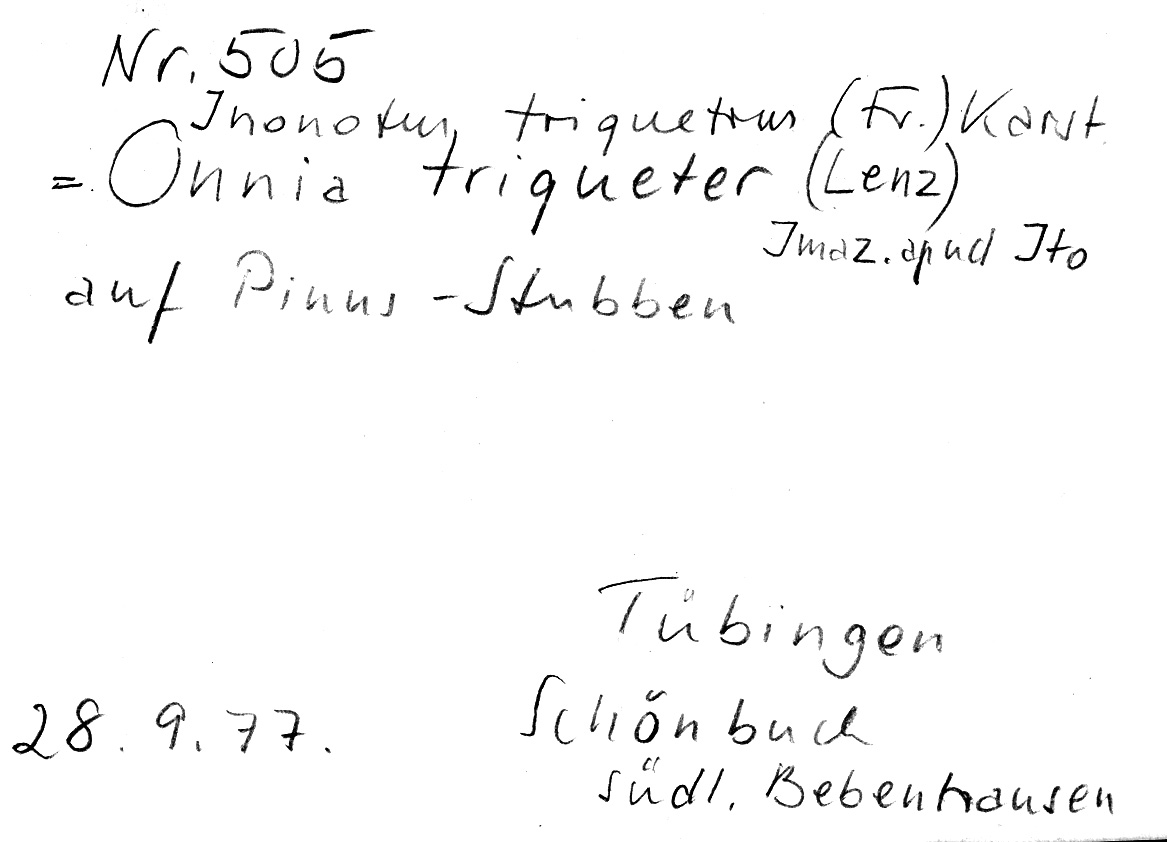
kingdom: Fungi
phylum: Basidiomycota
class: Agaricomycetes
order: Hymenochaetales
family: Hymenochaetaceae
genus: Inonotus
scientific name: Inonotus triqueter
